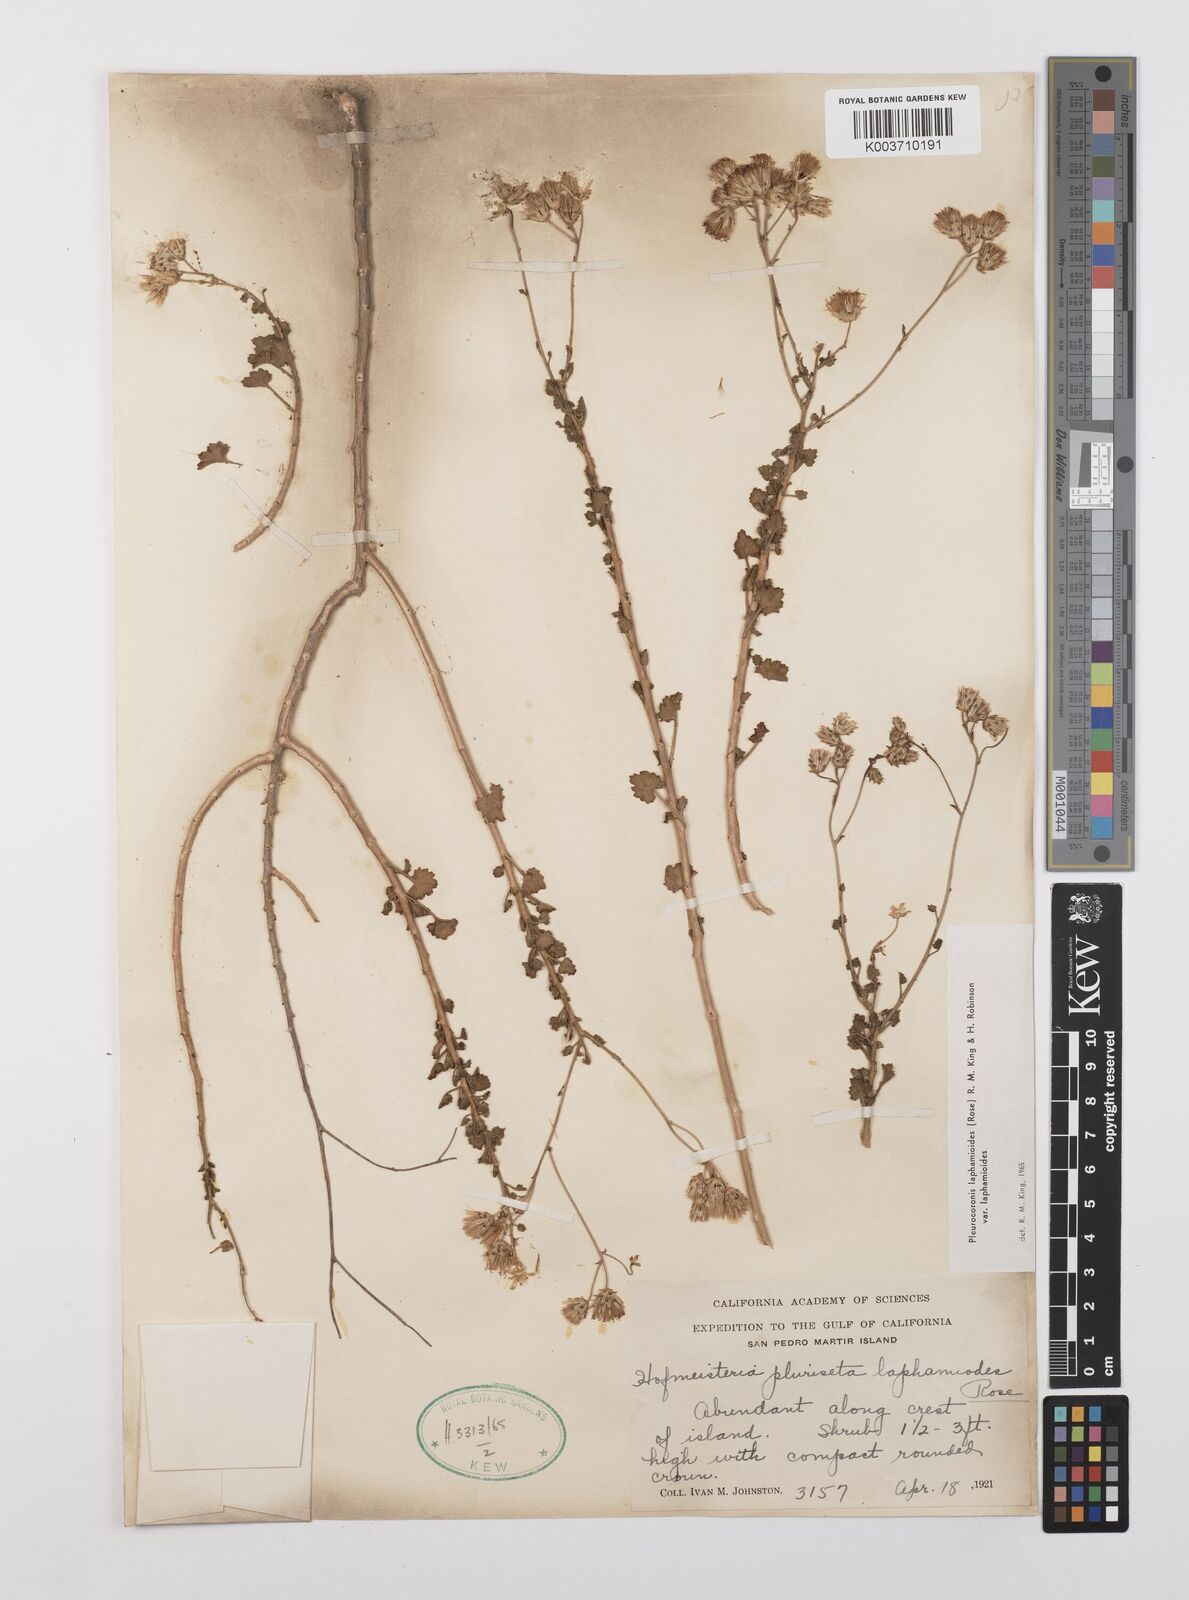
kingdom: Plantae
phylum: Tracheophyta
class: Magnoliopsida
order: Asterales
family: Asteraceae
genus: Pleurocoronis
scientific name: Pleurocoronis laphamioides
